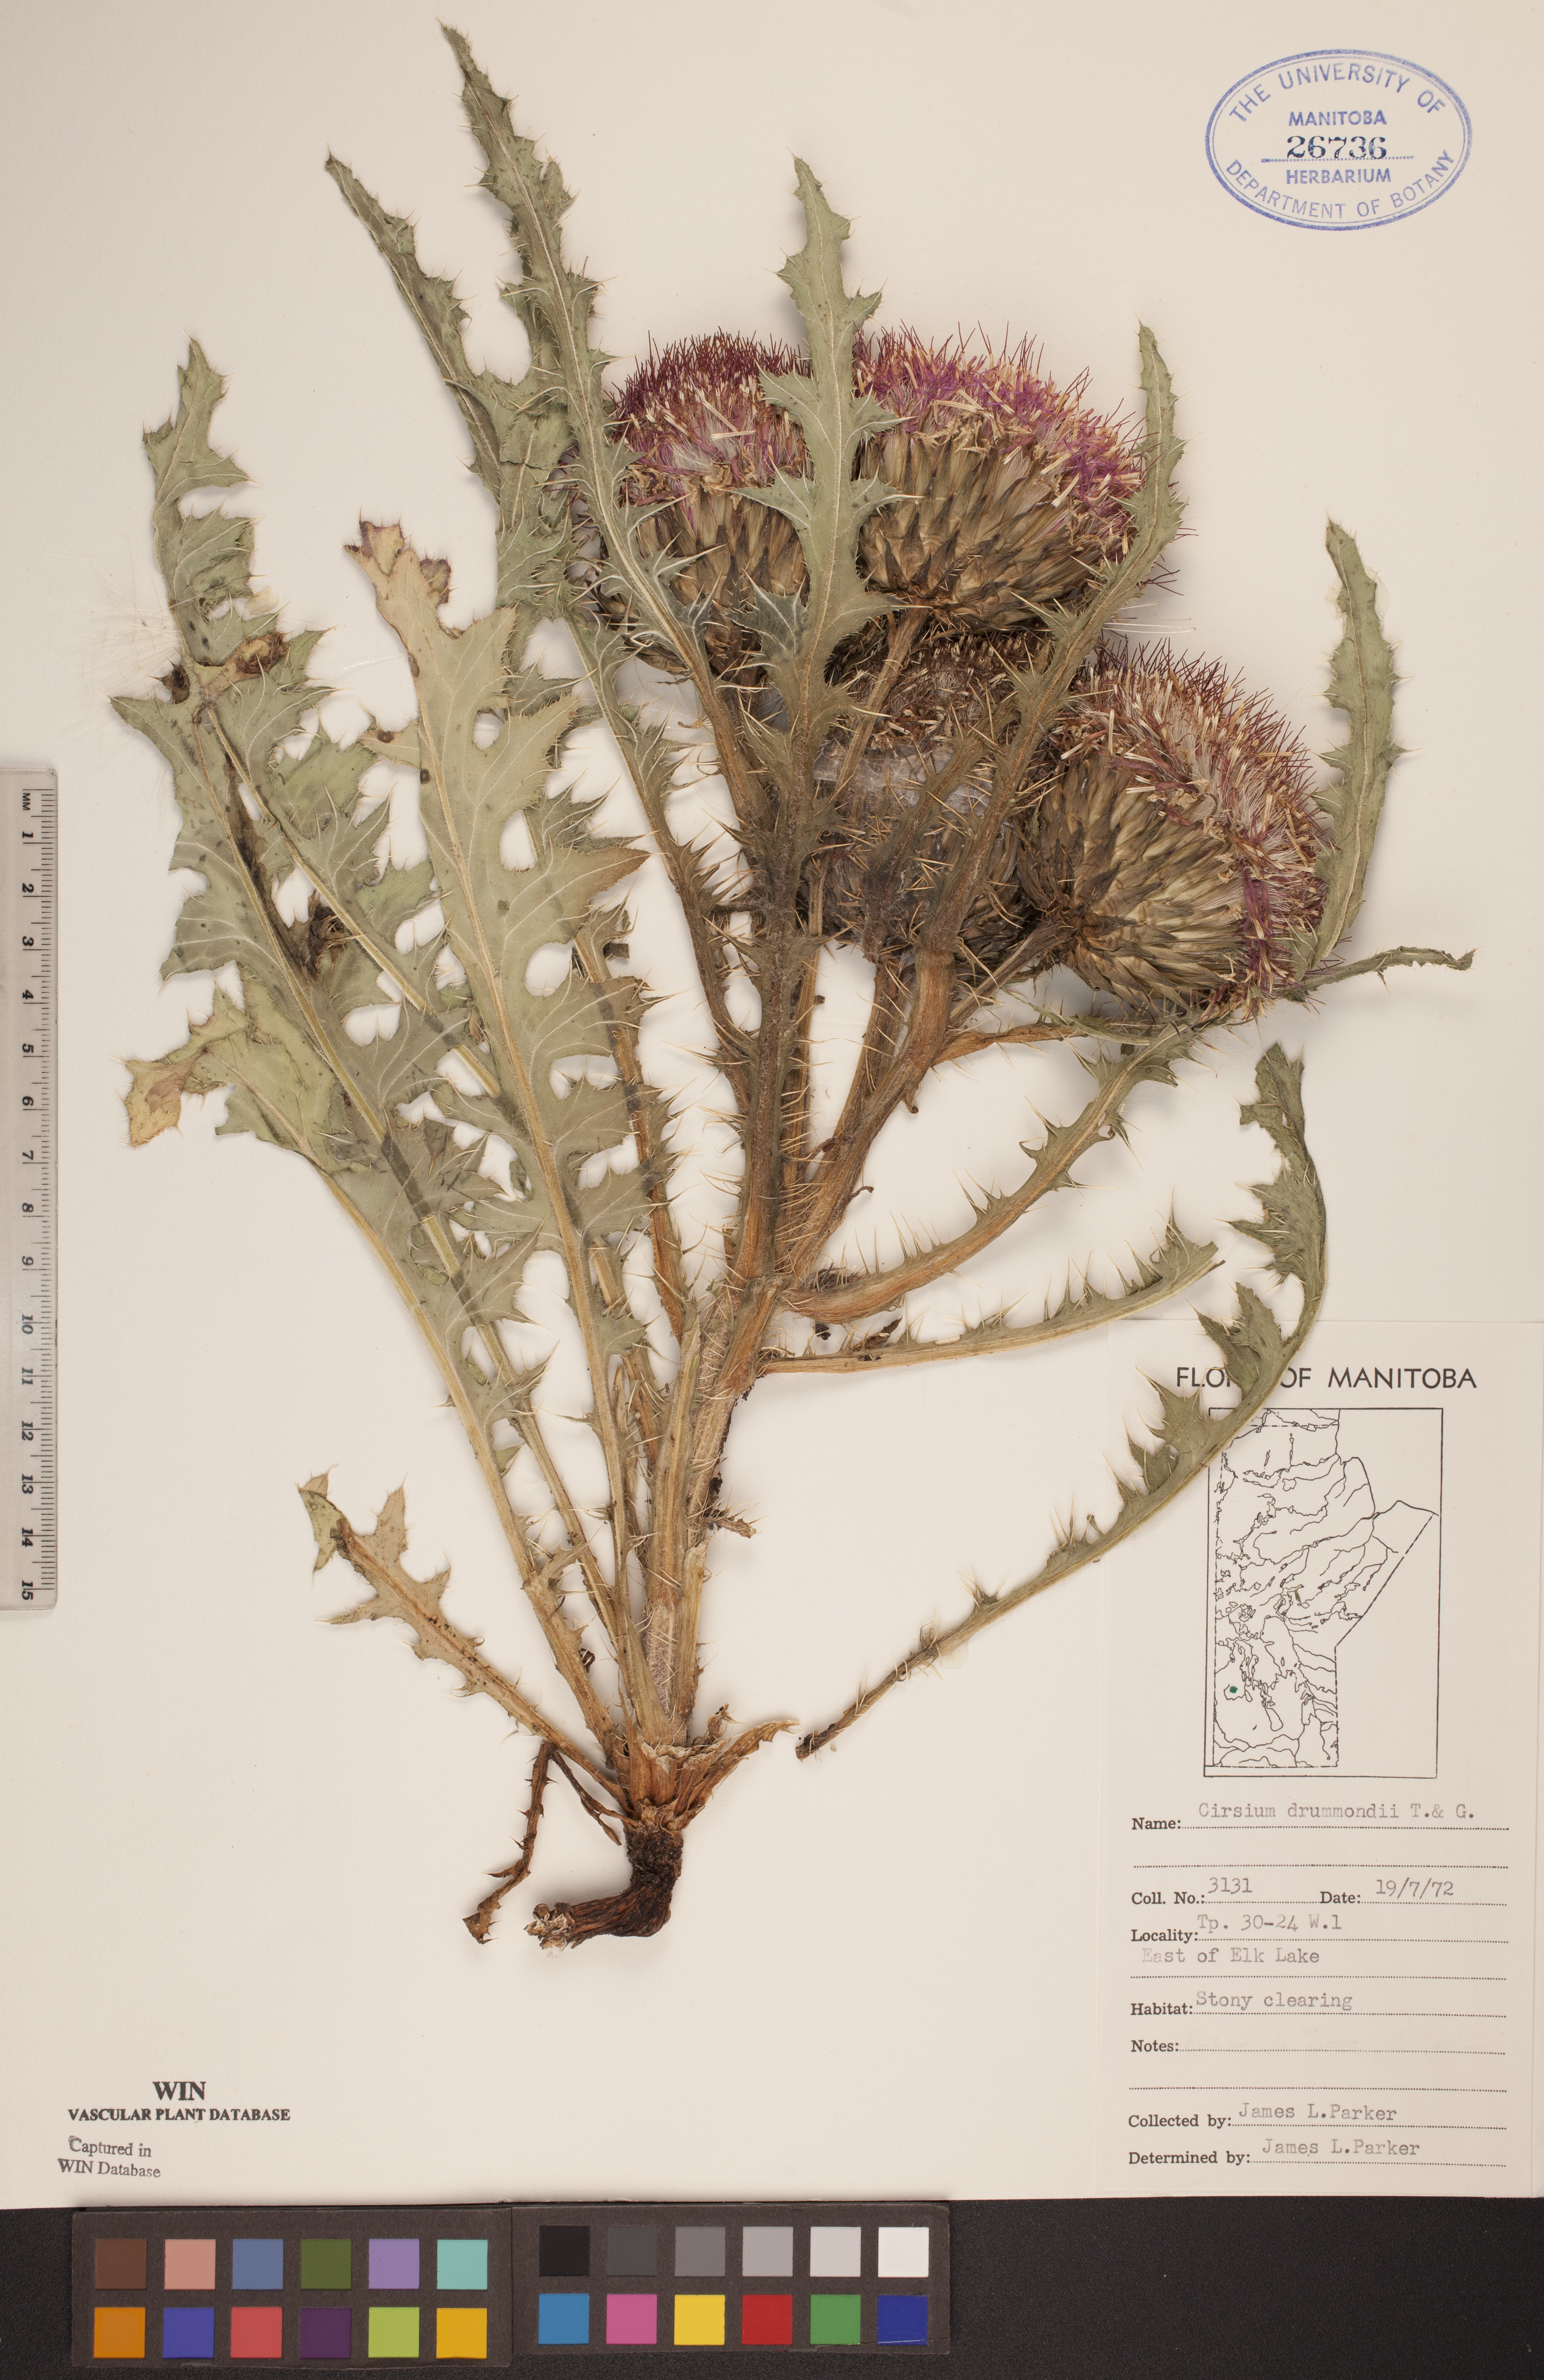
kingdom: Plantae
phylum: Tracheophyta
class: Magnoliopsida
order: Asterales
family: Asteraceae
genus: Cirsium
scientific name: Cirsium drummondii
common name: Drummond's thistle
